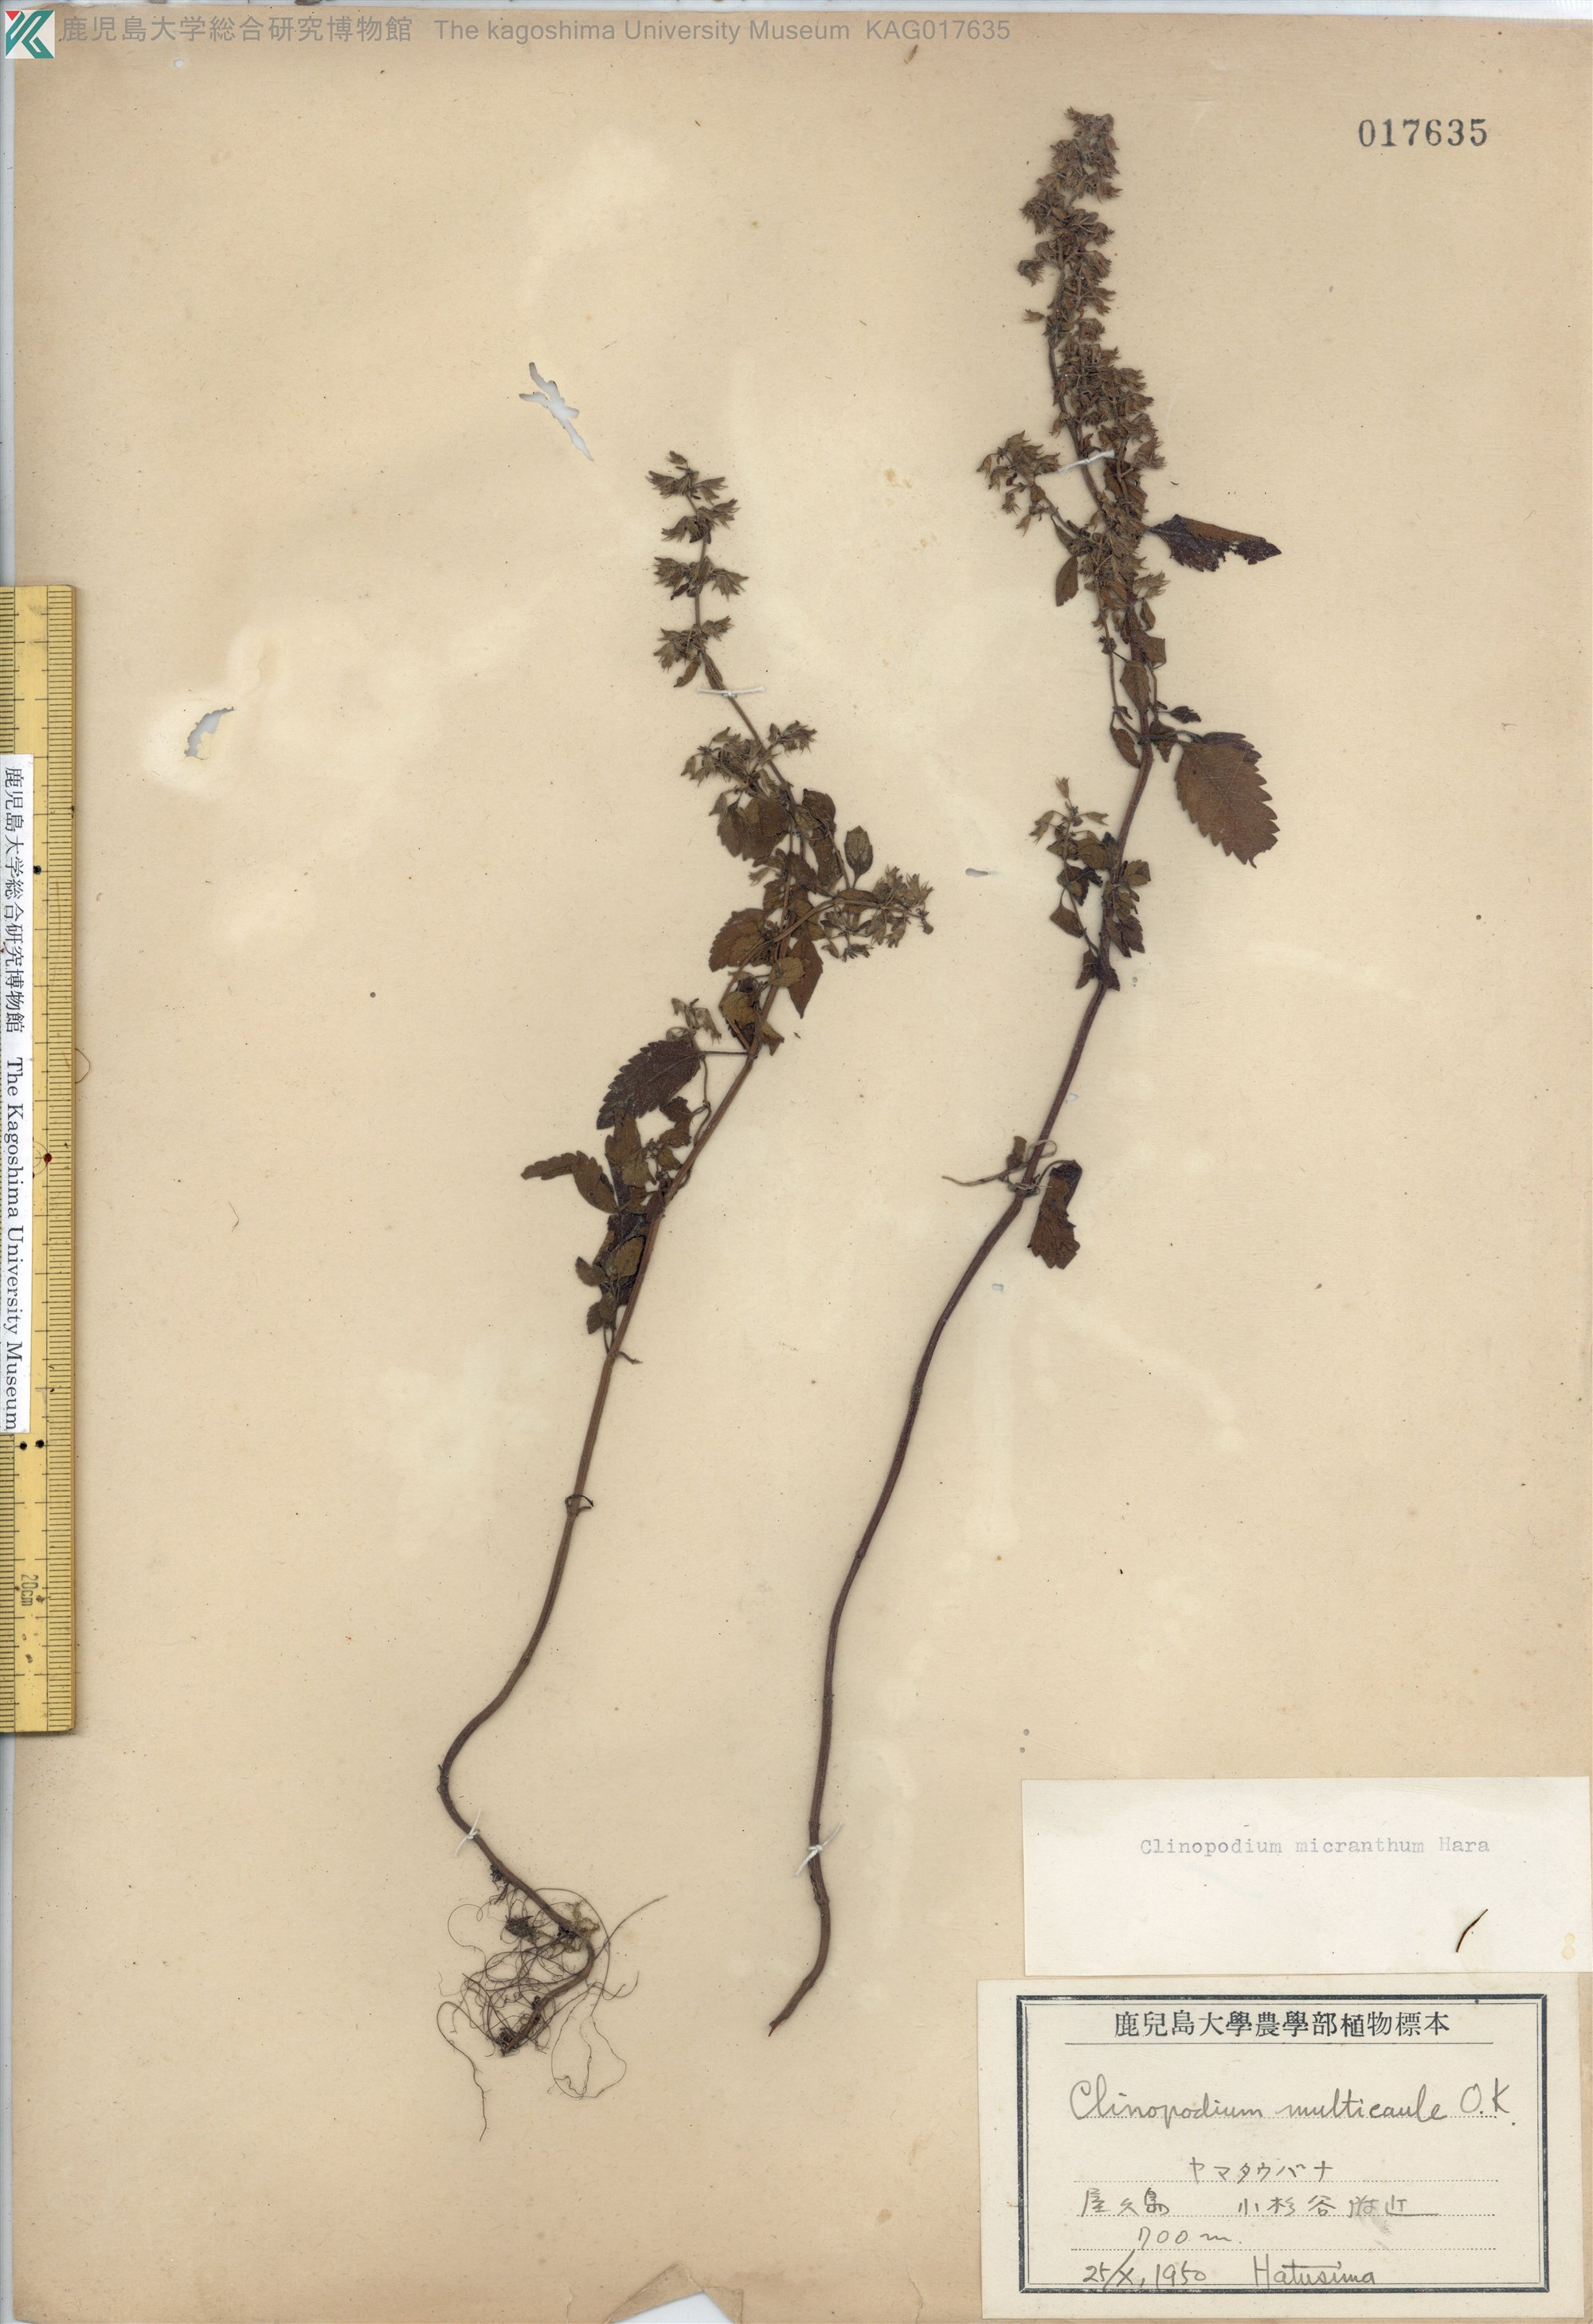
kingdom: Plantae
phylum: Tracheophyta
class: Magnoliopsida
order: Lamiales
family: Lamiaceae
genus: Clinopodium
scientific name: Clinopodium micranthum
